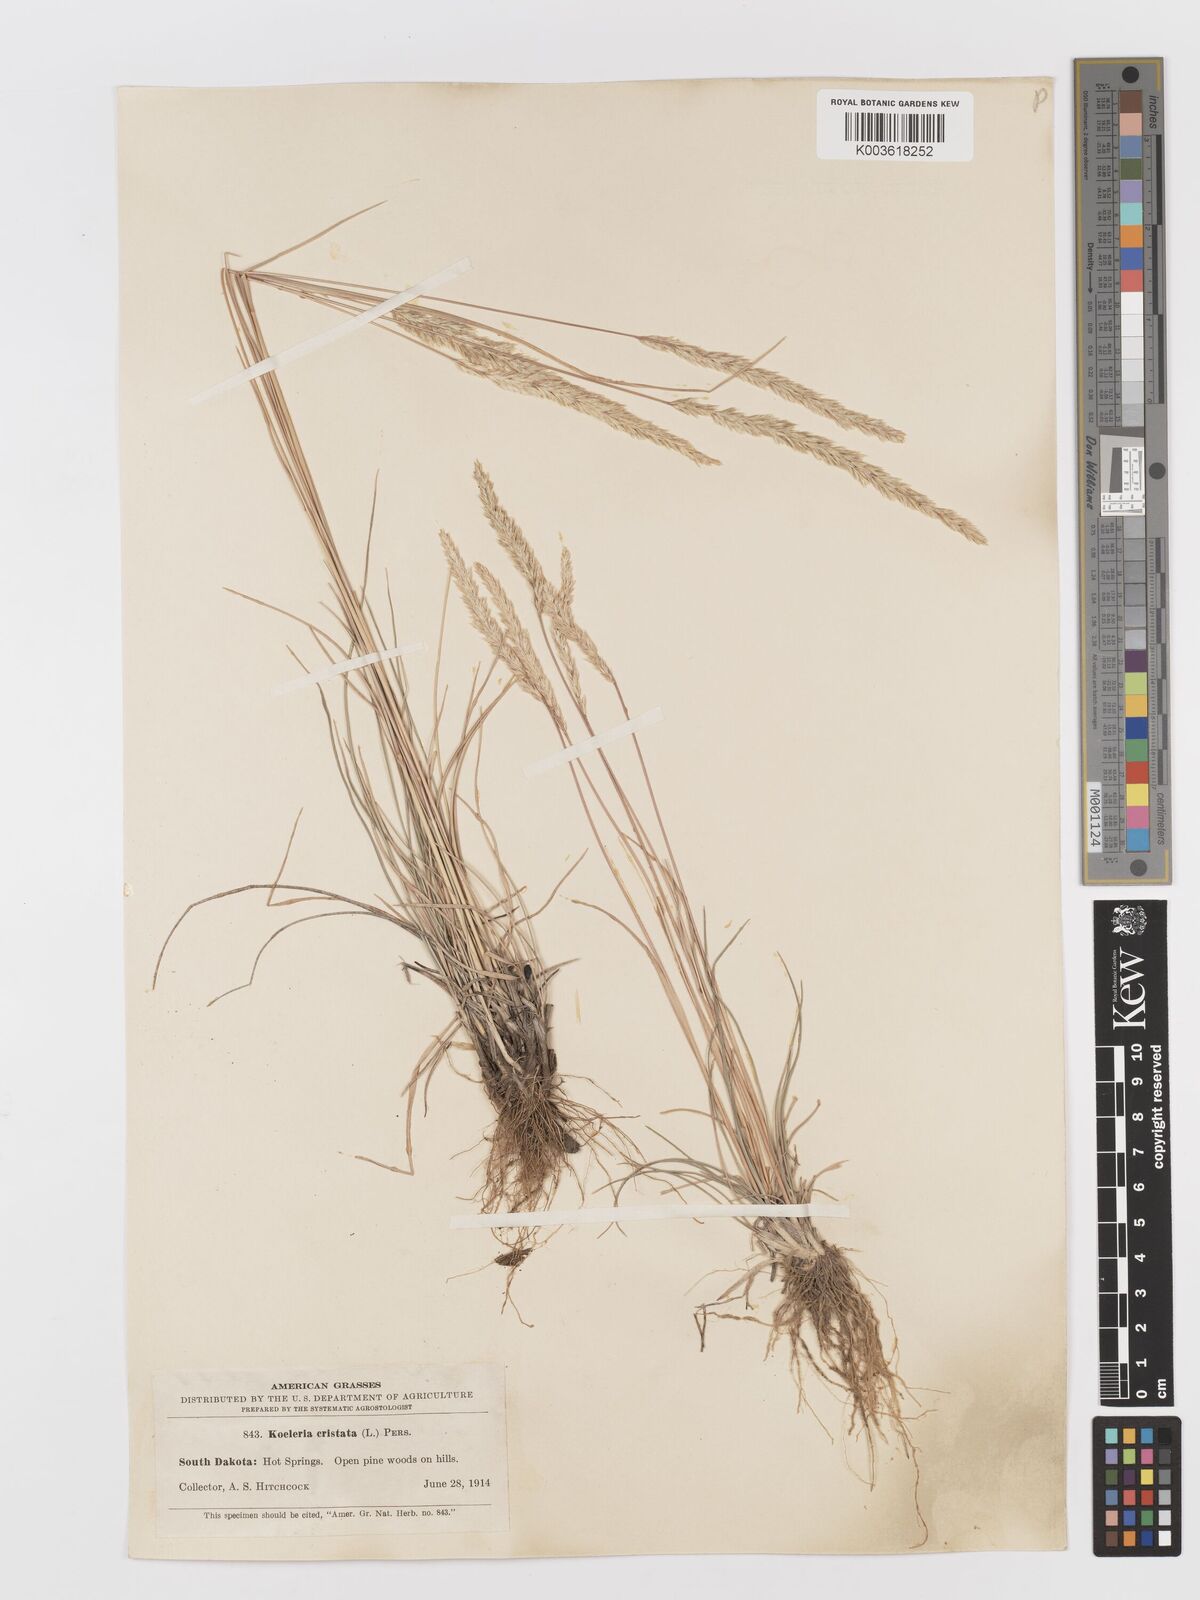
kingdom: Plantae
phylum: Tracheophyta
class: Liliopsida
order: Poales
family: Poaceae
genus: Koeleria
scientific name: Koeleria macrantha
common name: Crested hair-grass
